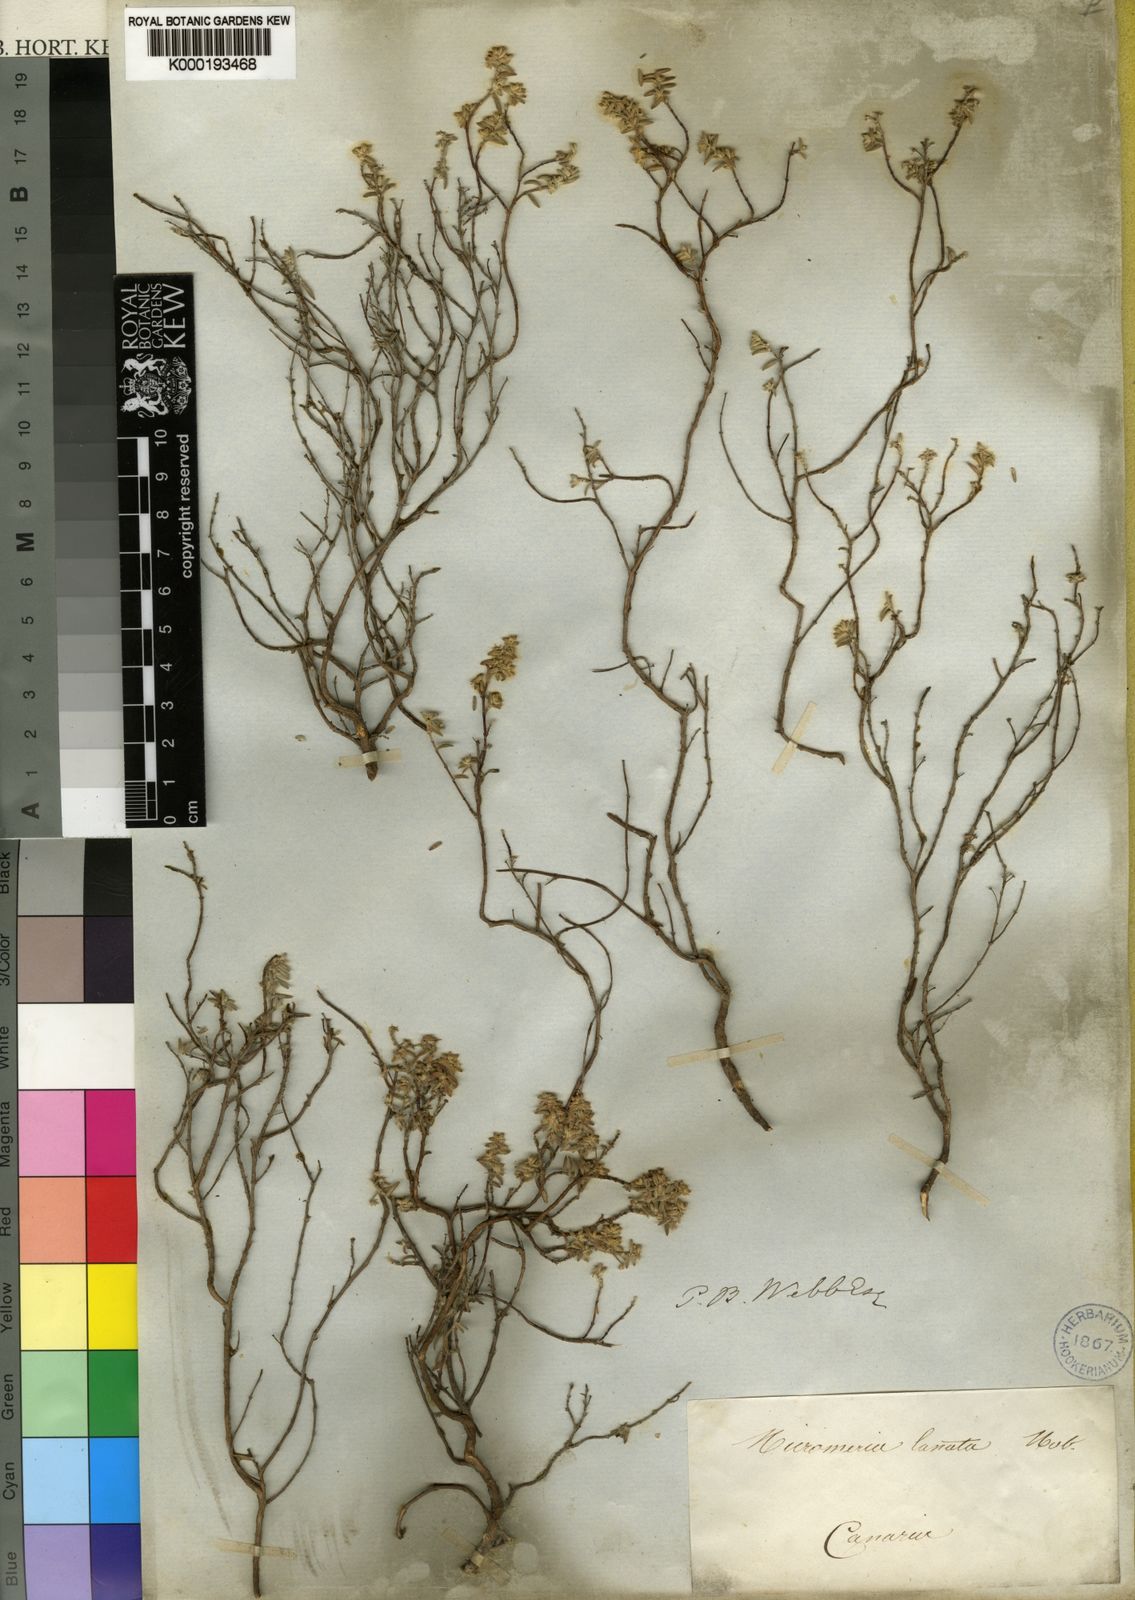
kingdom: Plantae
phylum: Tracheophyta
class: Magnoliopsida
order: Lamiales
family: Lamiaceae
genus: Micromeria
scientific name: Micromeria lanata
